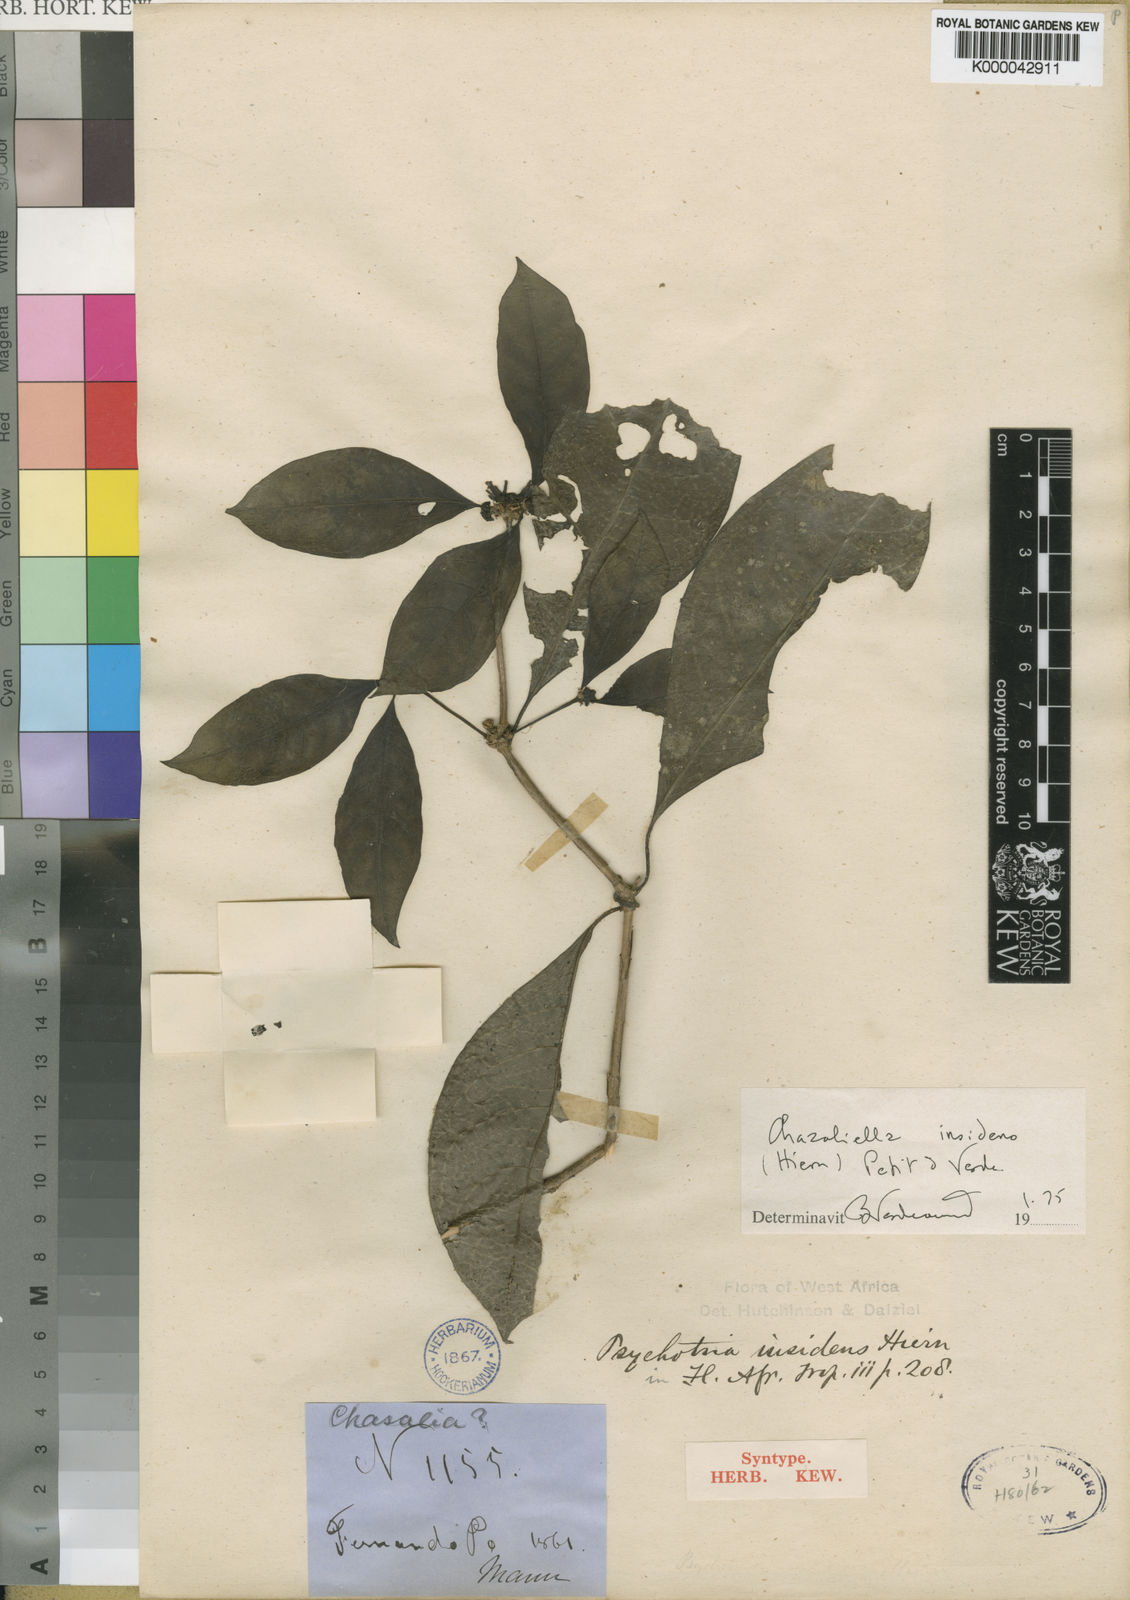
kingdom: Plantae
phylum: Tracheophyta
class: Magnoliopsida
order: Gentianales
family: Rubiaceae
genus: Eumachia
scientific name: Eumachia insidens
